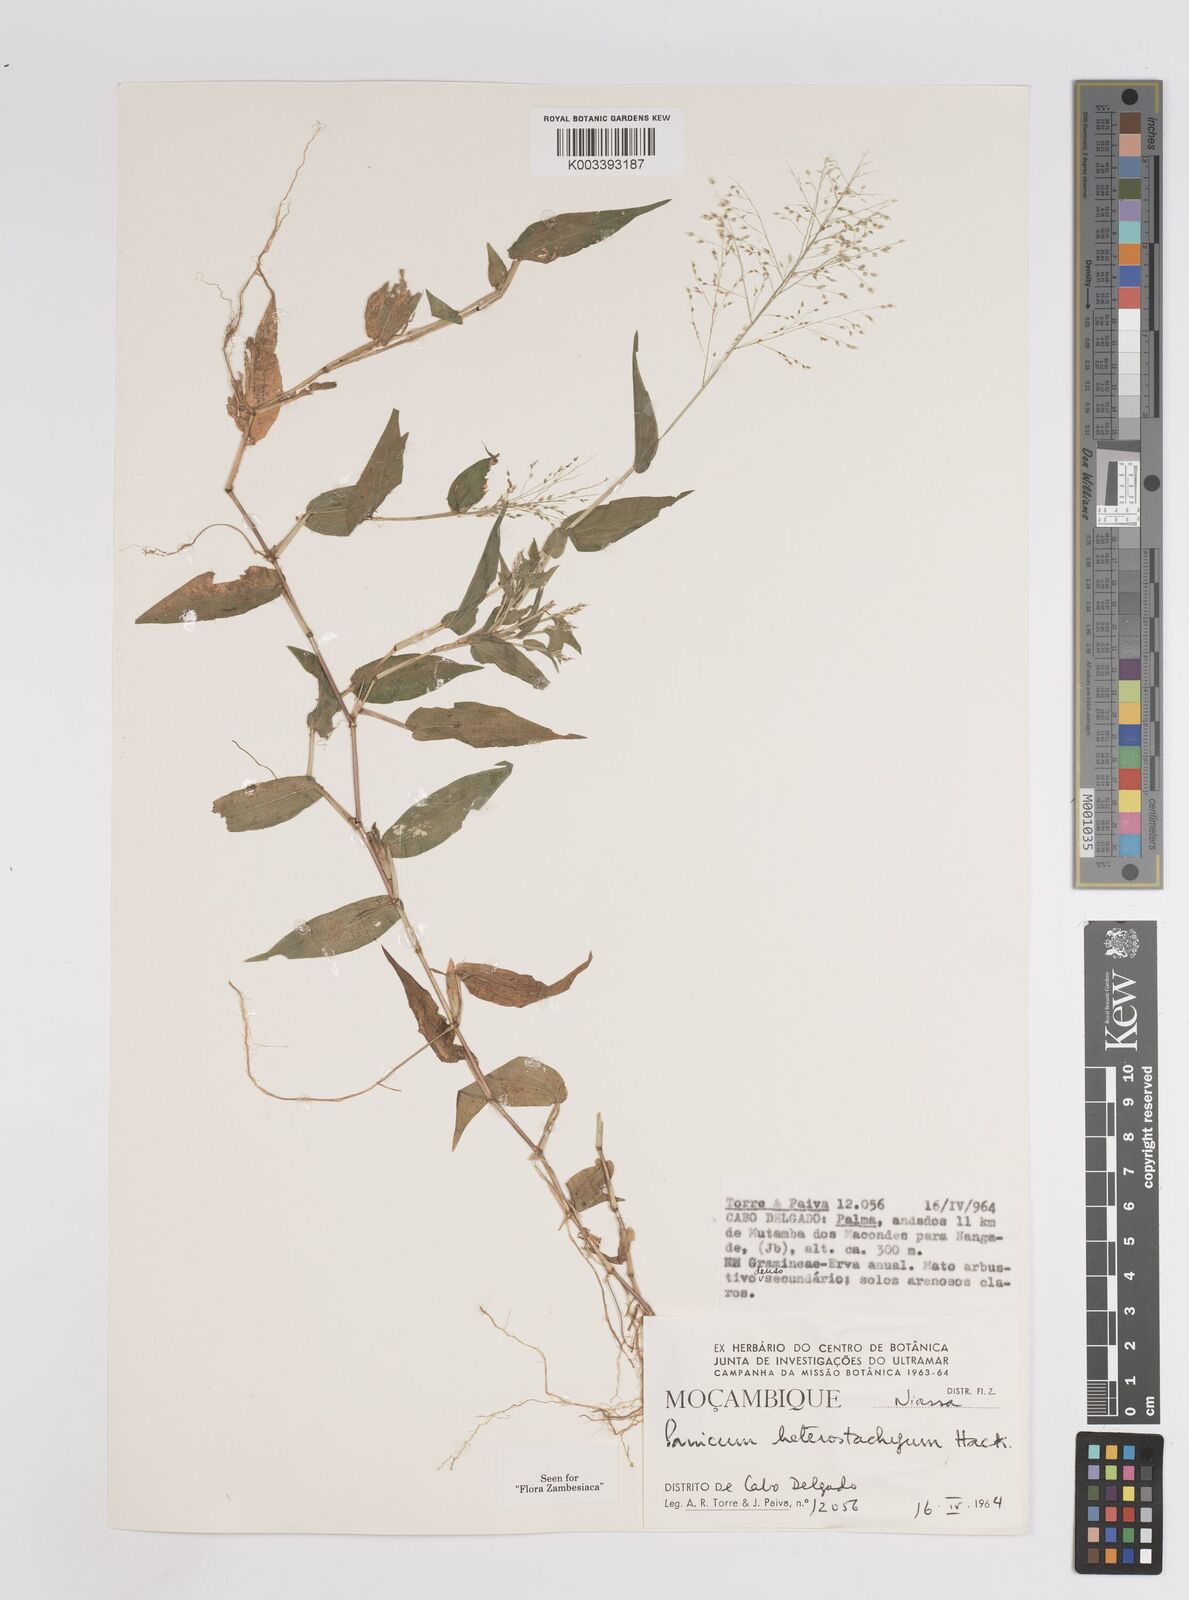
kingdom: Plantae
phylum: Tracheophyta
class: Liliopsida
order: Poales
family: Poaceae
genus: Panicum
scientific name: Panicum hirtum
